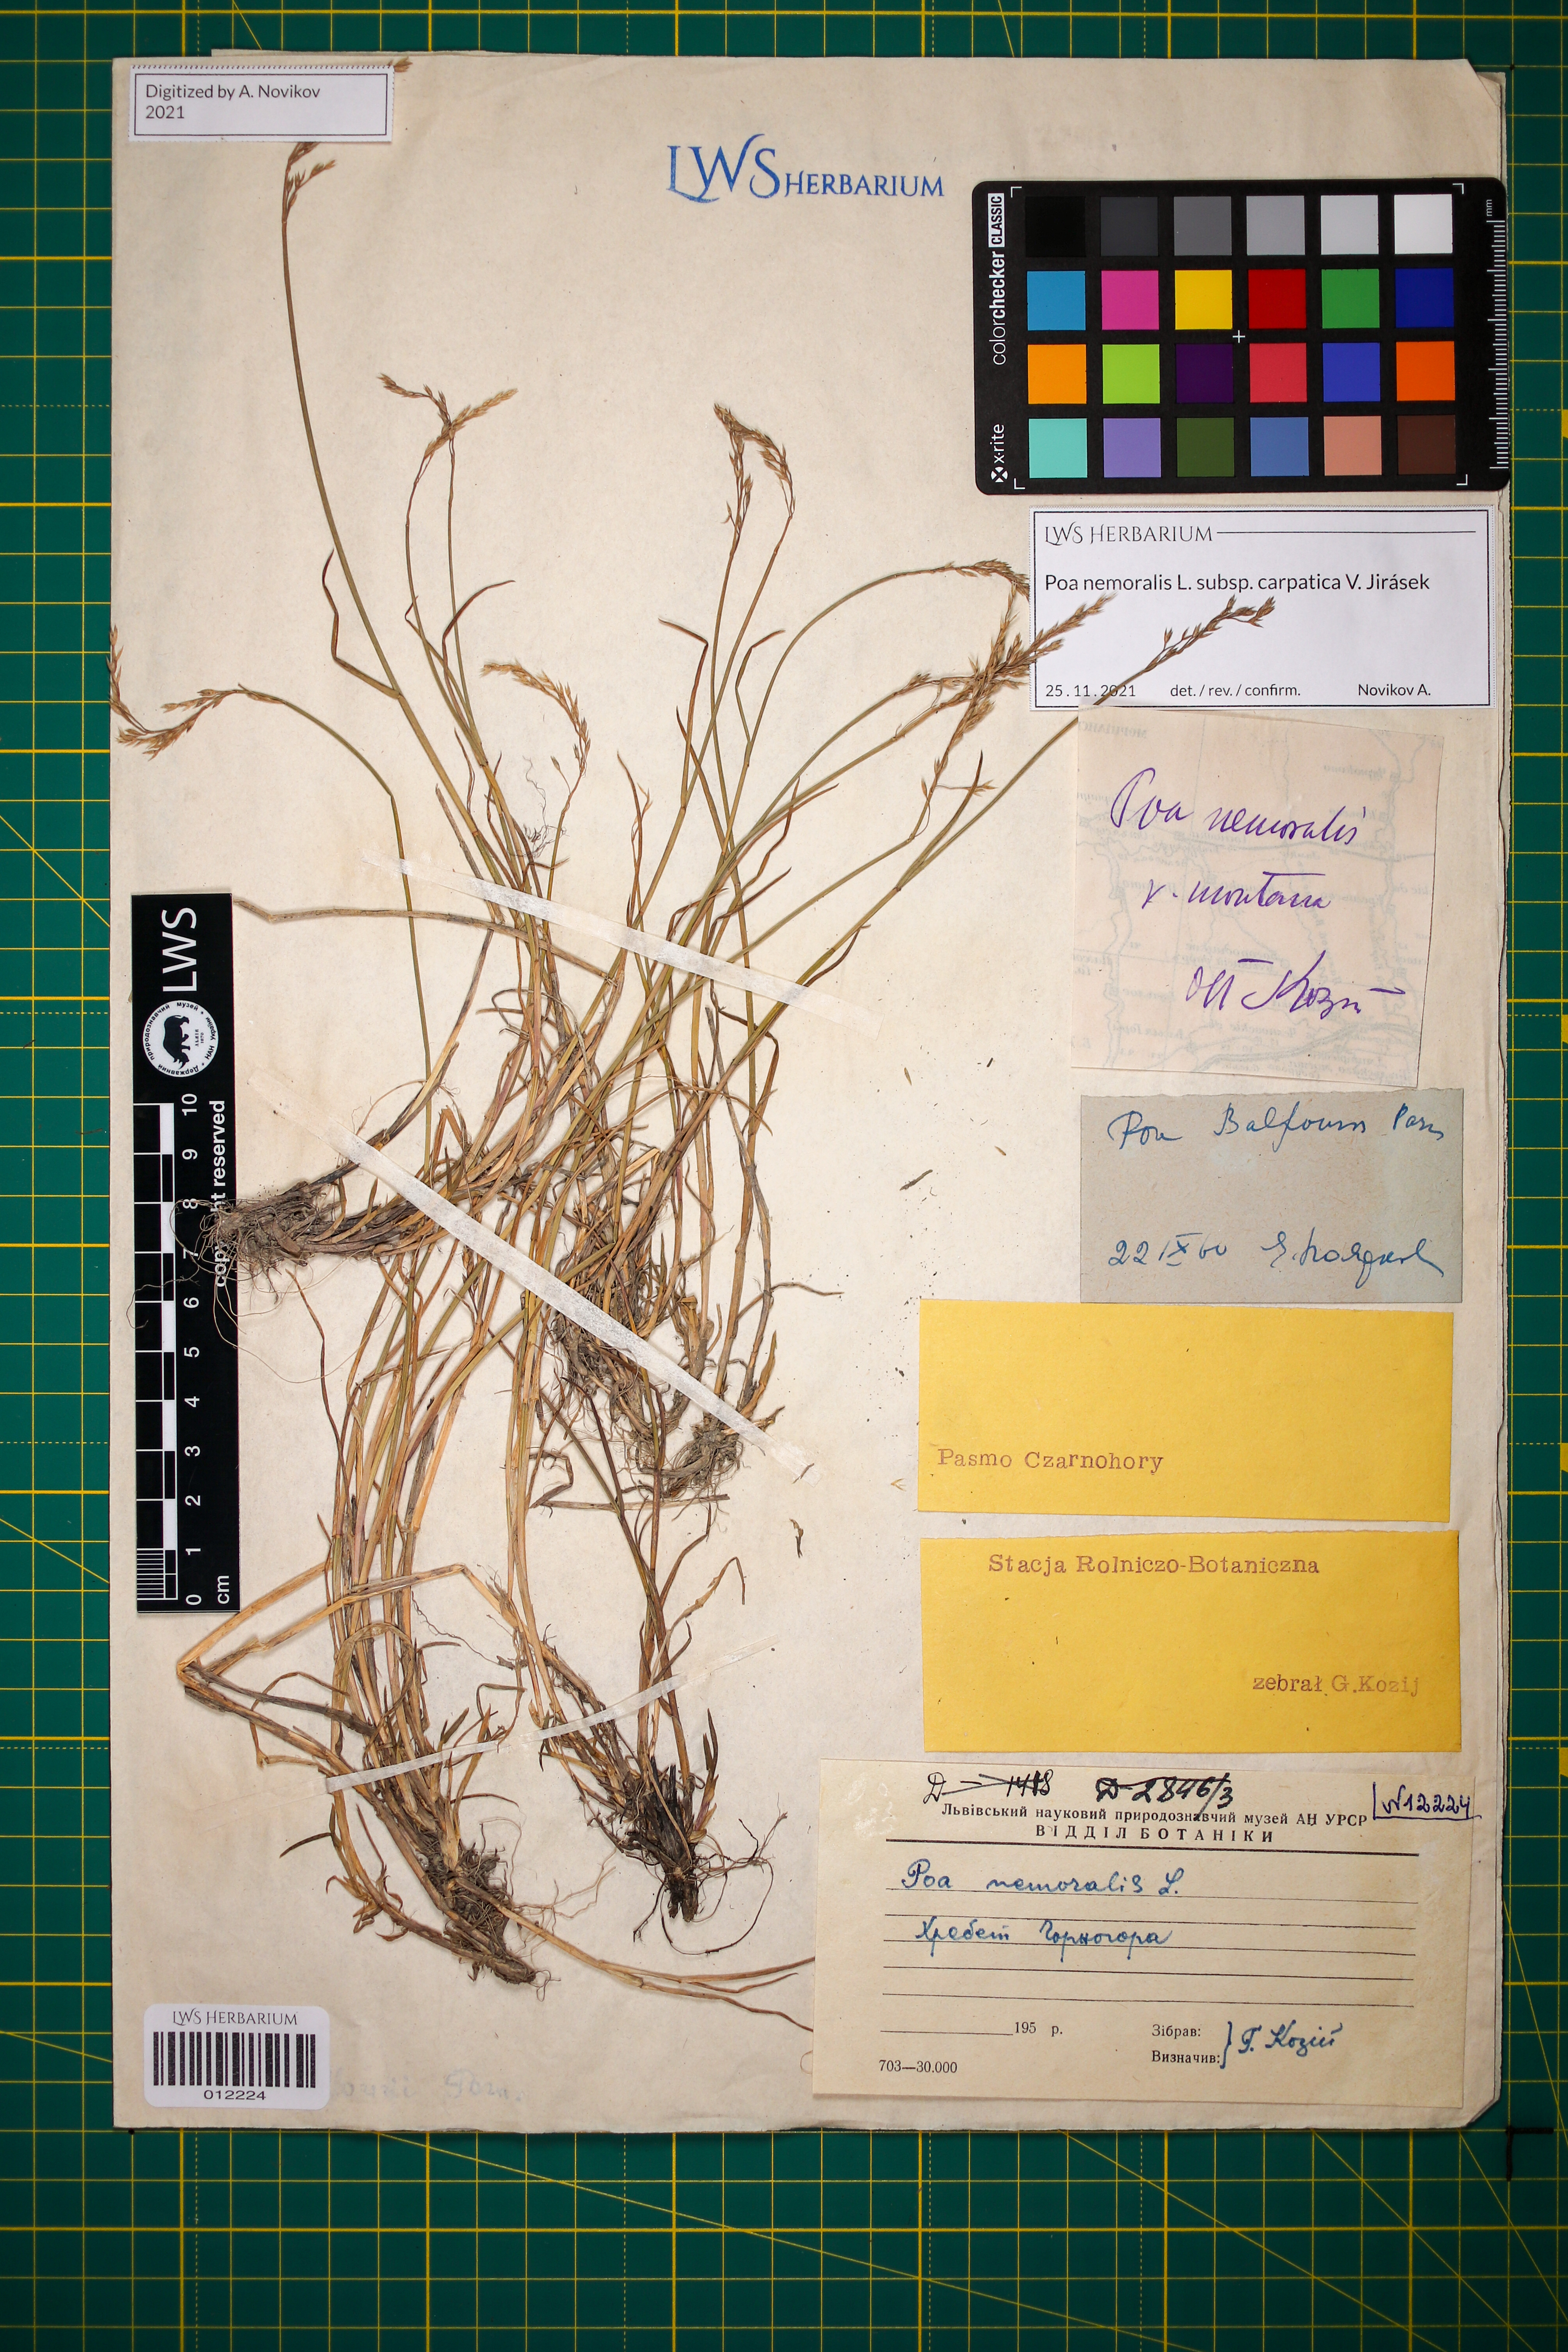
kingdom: Plantae
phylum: Tracheophyta
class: Liliopsida
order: Poales
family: Poaceae
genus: Poa
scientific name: Poa carpatica
